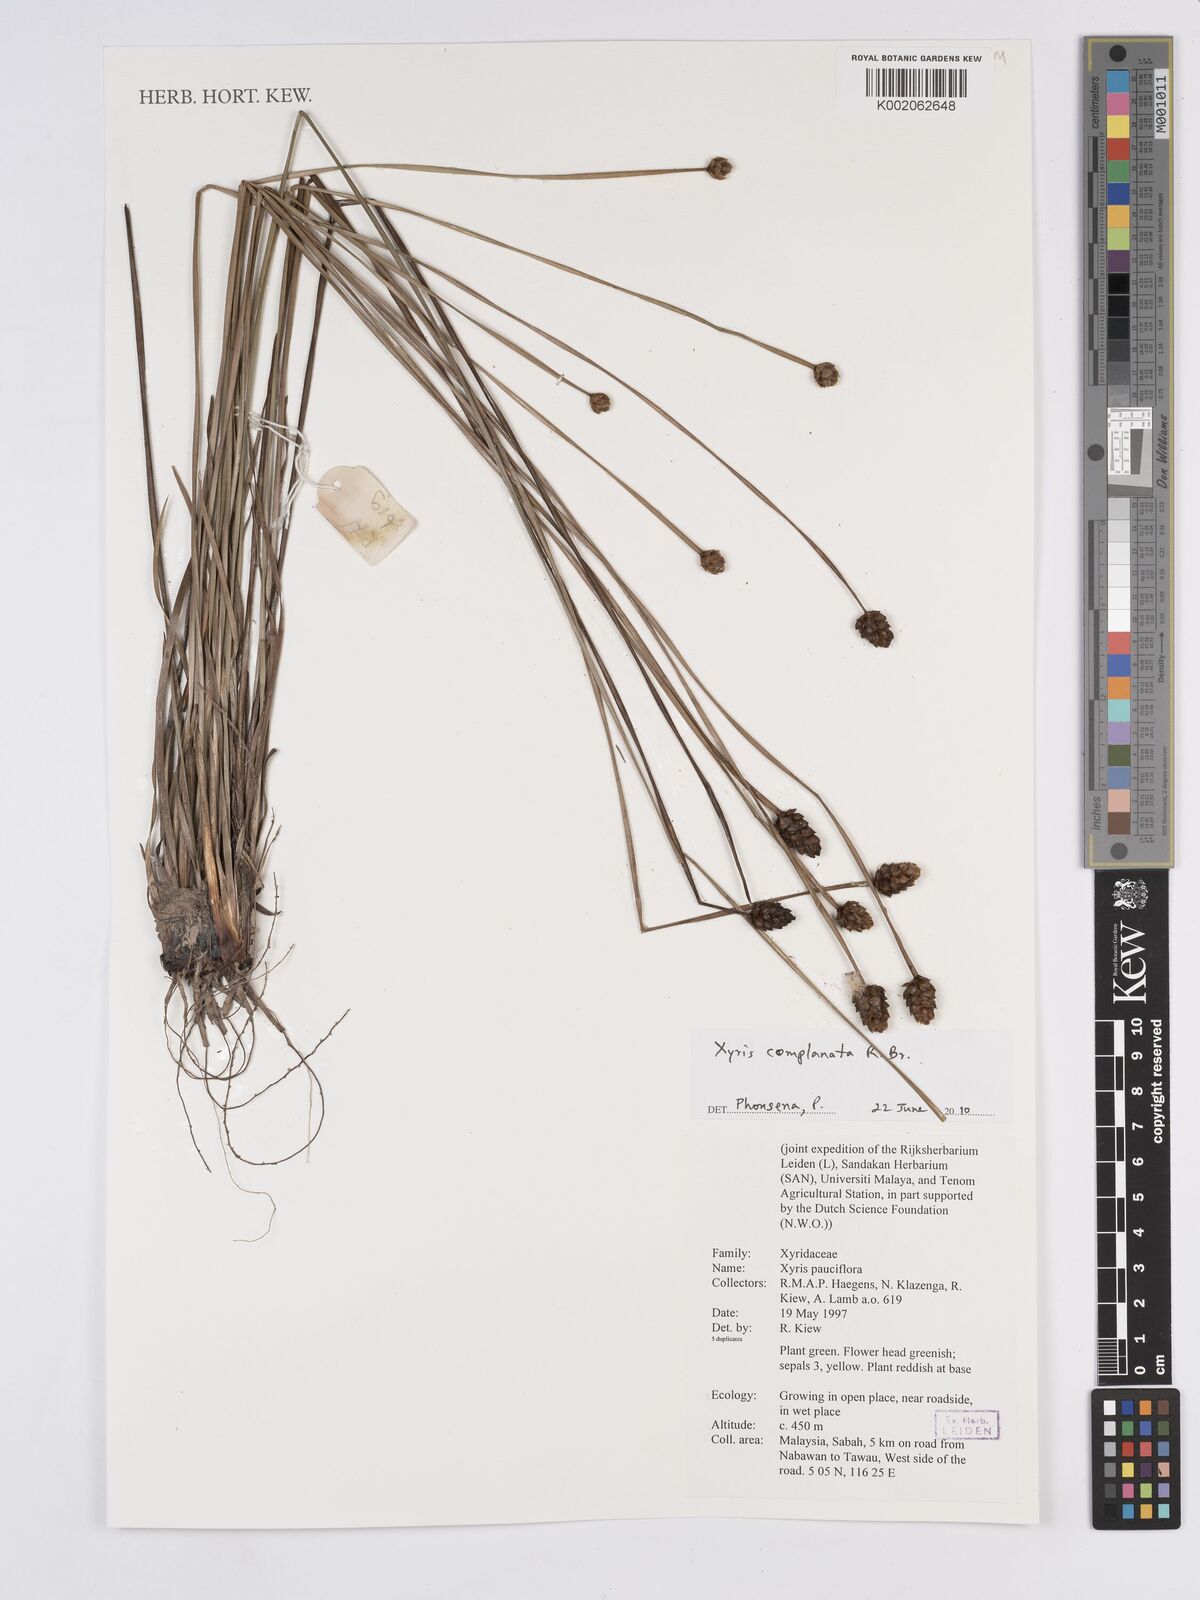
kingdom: Plantae
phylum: Tracheophyta
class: Liliopsida
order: Poales
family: Xyridaceae
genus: Xyris
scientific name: Xyris complanata
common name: Hawai'i yelloweyed grass
